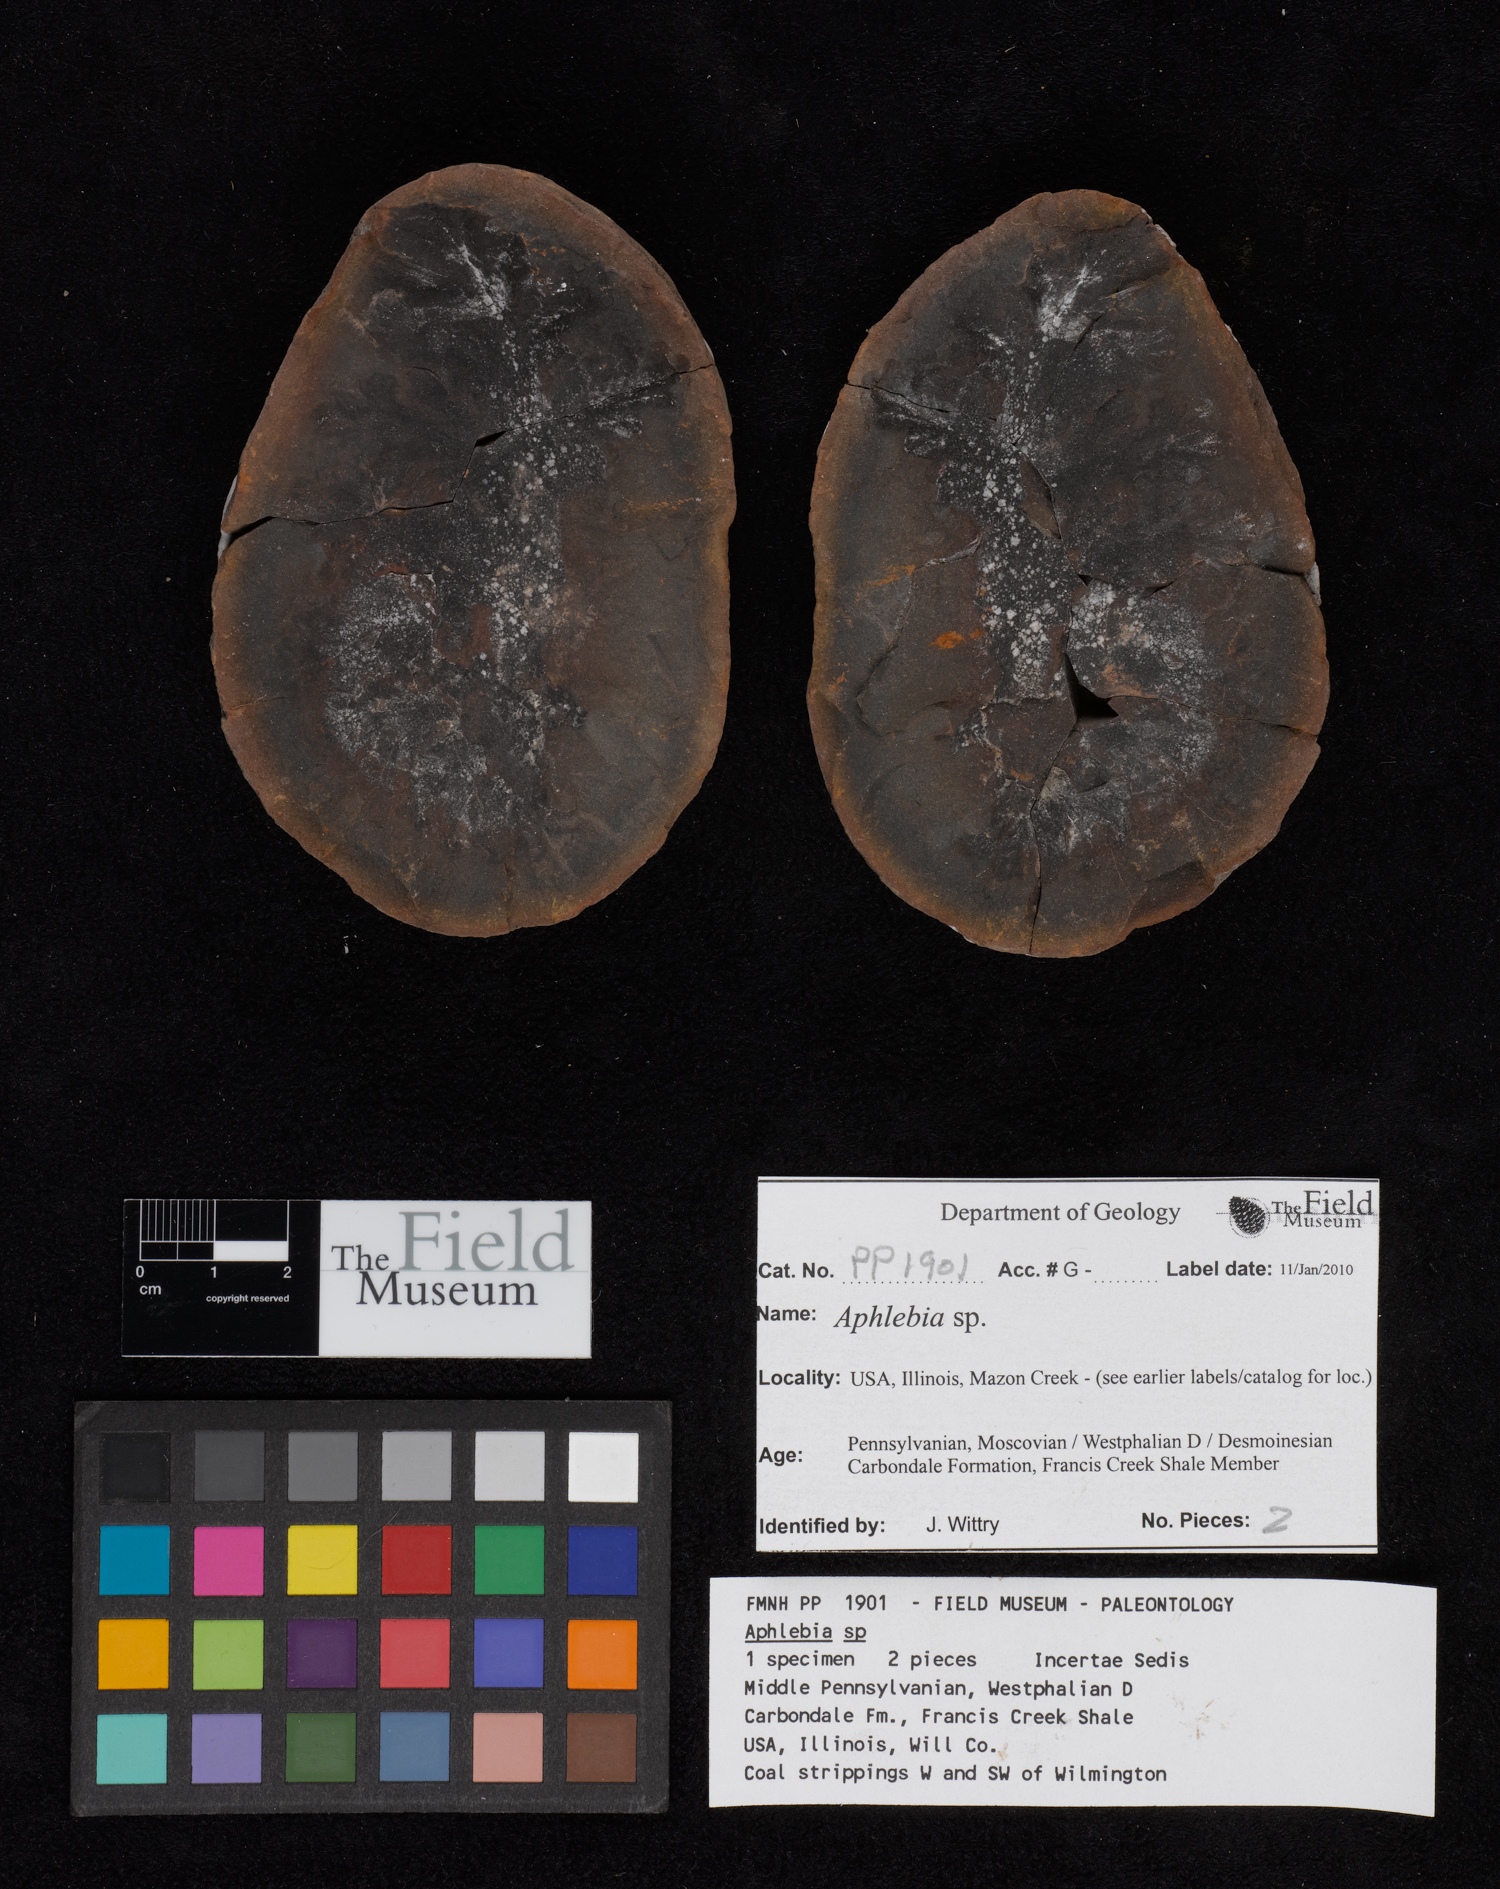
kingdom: Plantae
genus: Rhacophyllum
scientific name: Rhacophyllum
